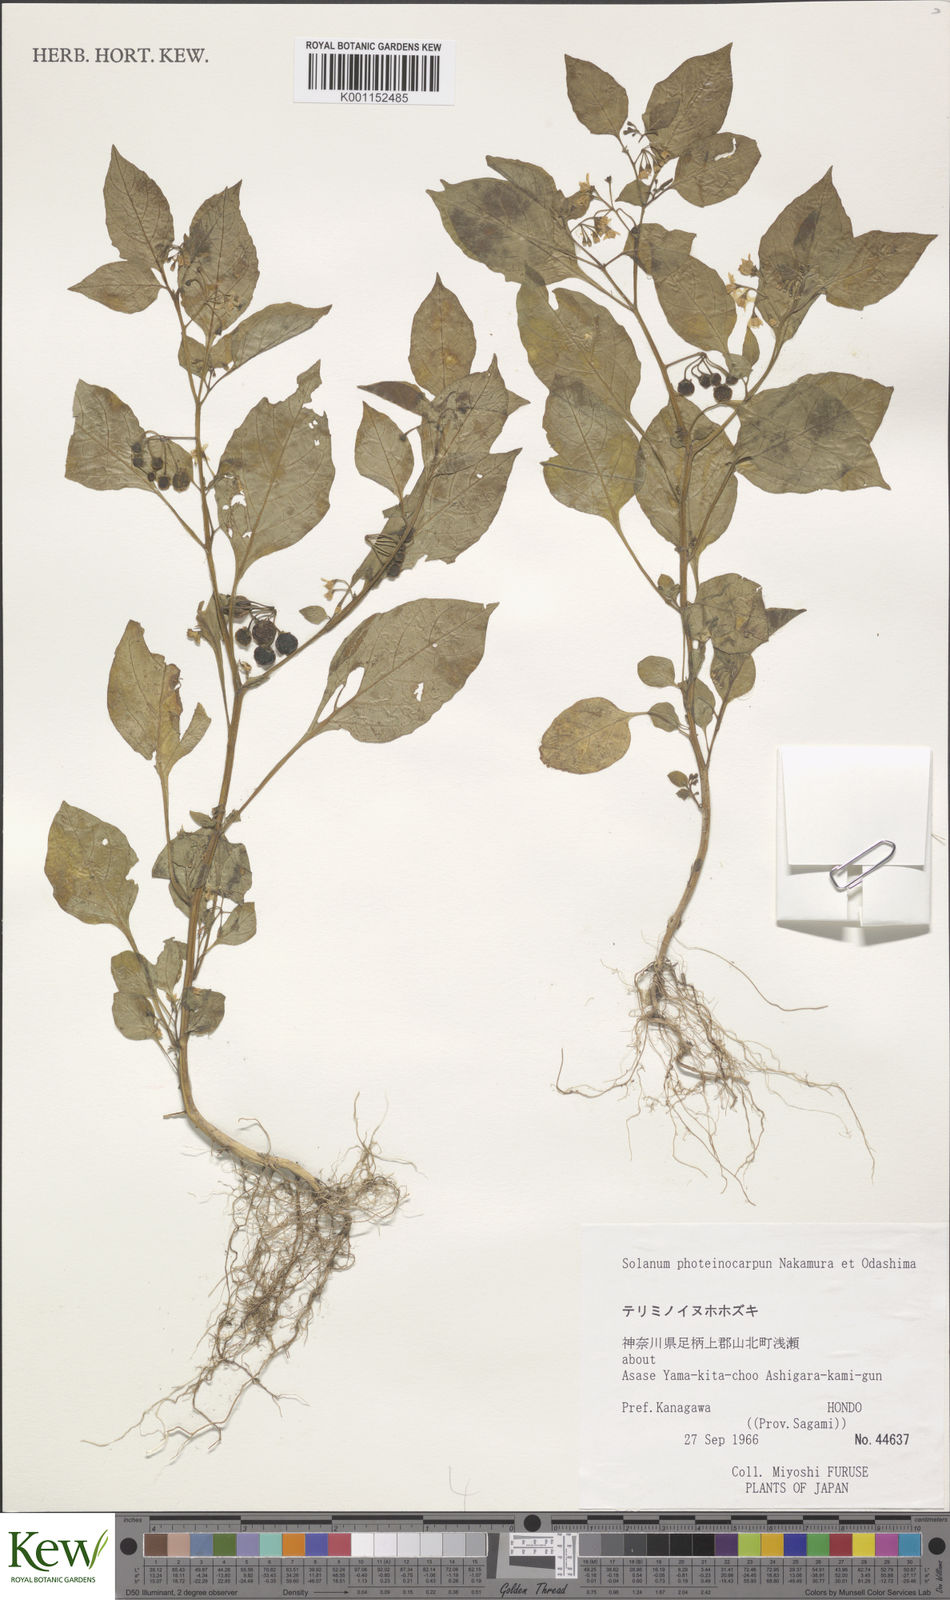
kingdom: Plantae
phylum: Tracheophyta
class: Magnoliopsida
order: Solanales
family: Solanaceae
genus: Solanum
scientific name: Solanum americanum
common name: American black nightshade
